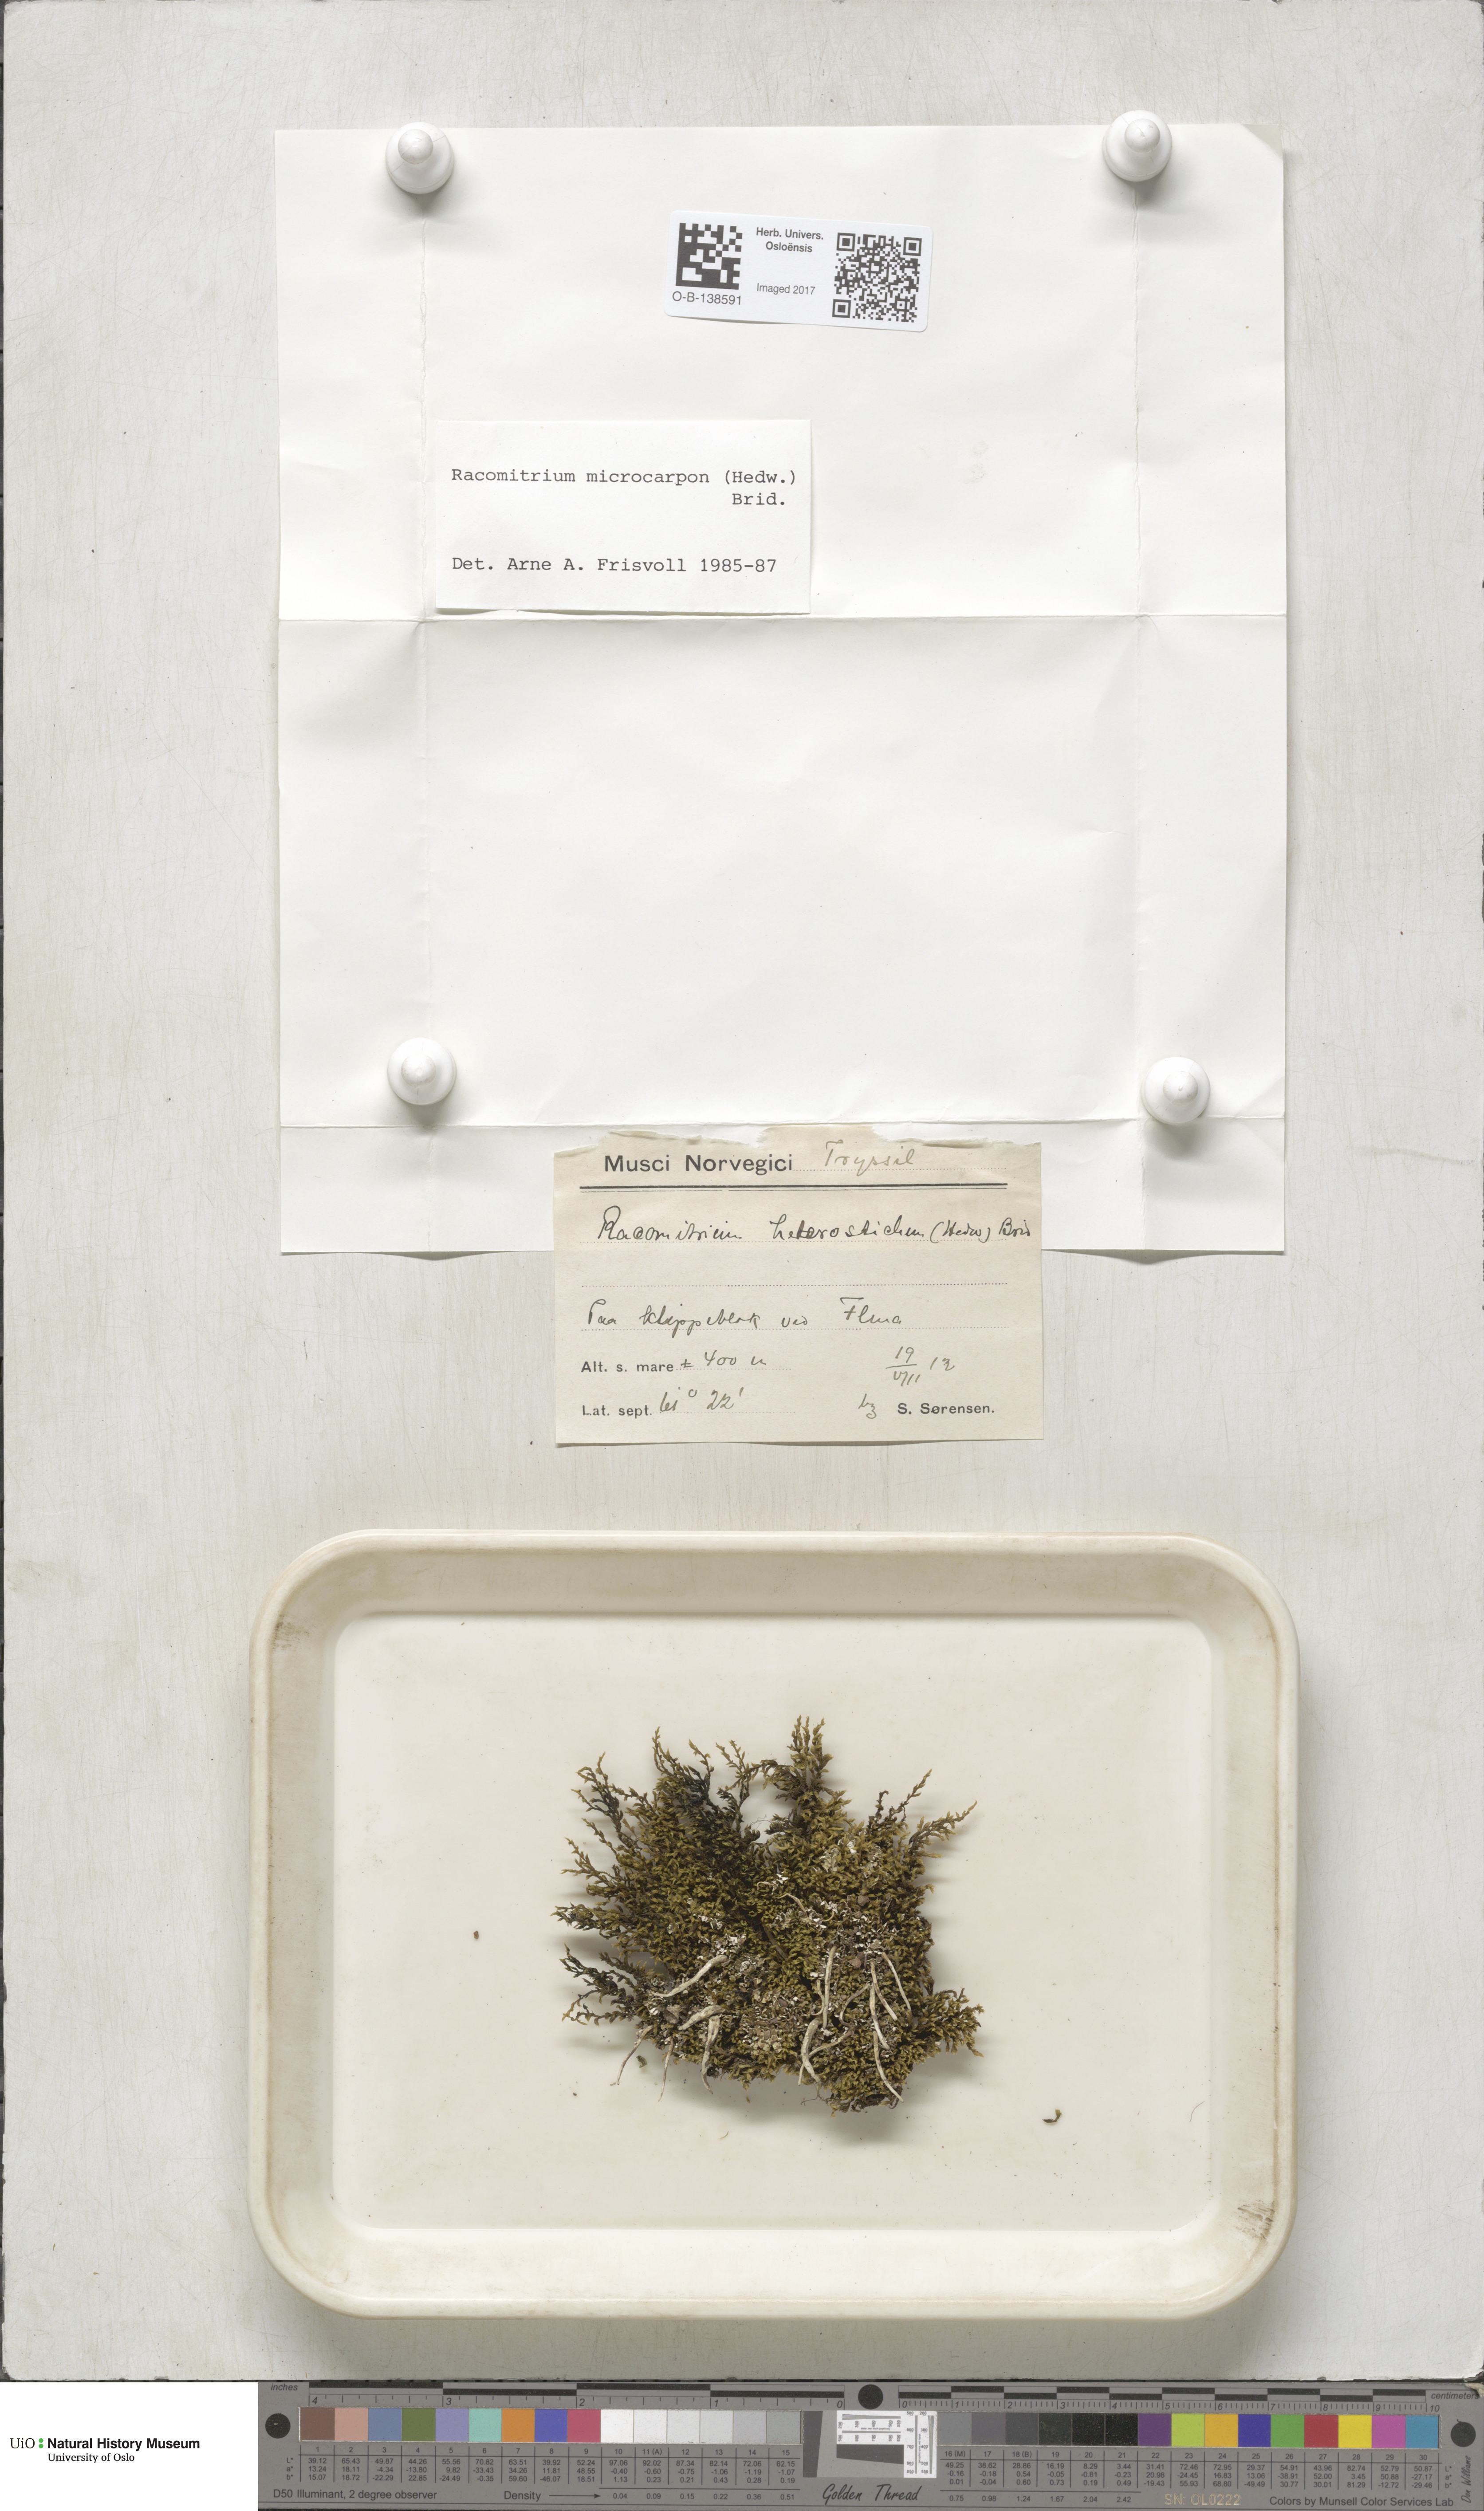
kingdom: Plantae
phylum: Bryophyta
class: Bryopsida
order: Grimmiales
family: Grimmiaceae
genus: Bucklandiella
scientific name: Bucklandiella microcarpos
